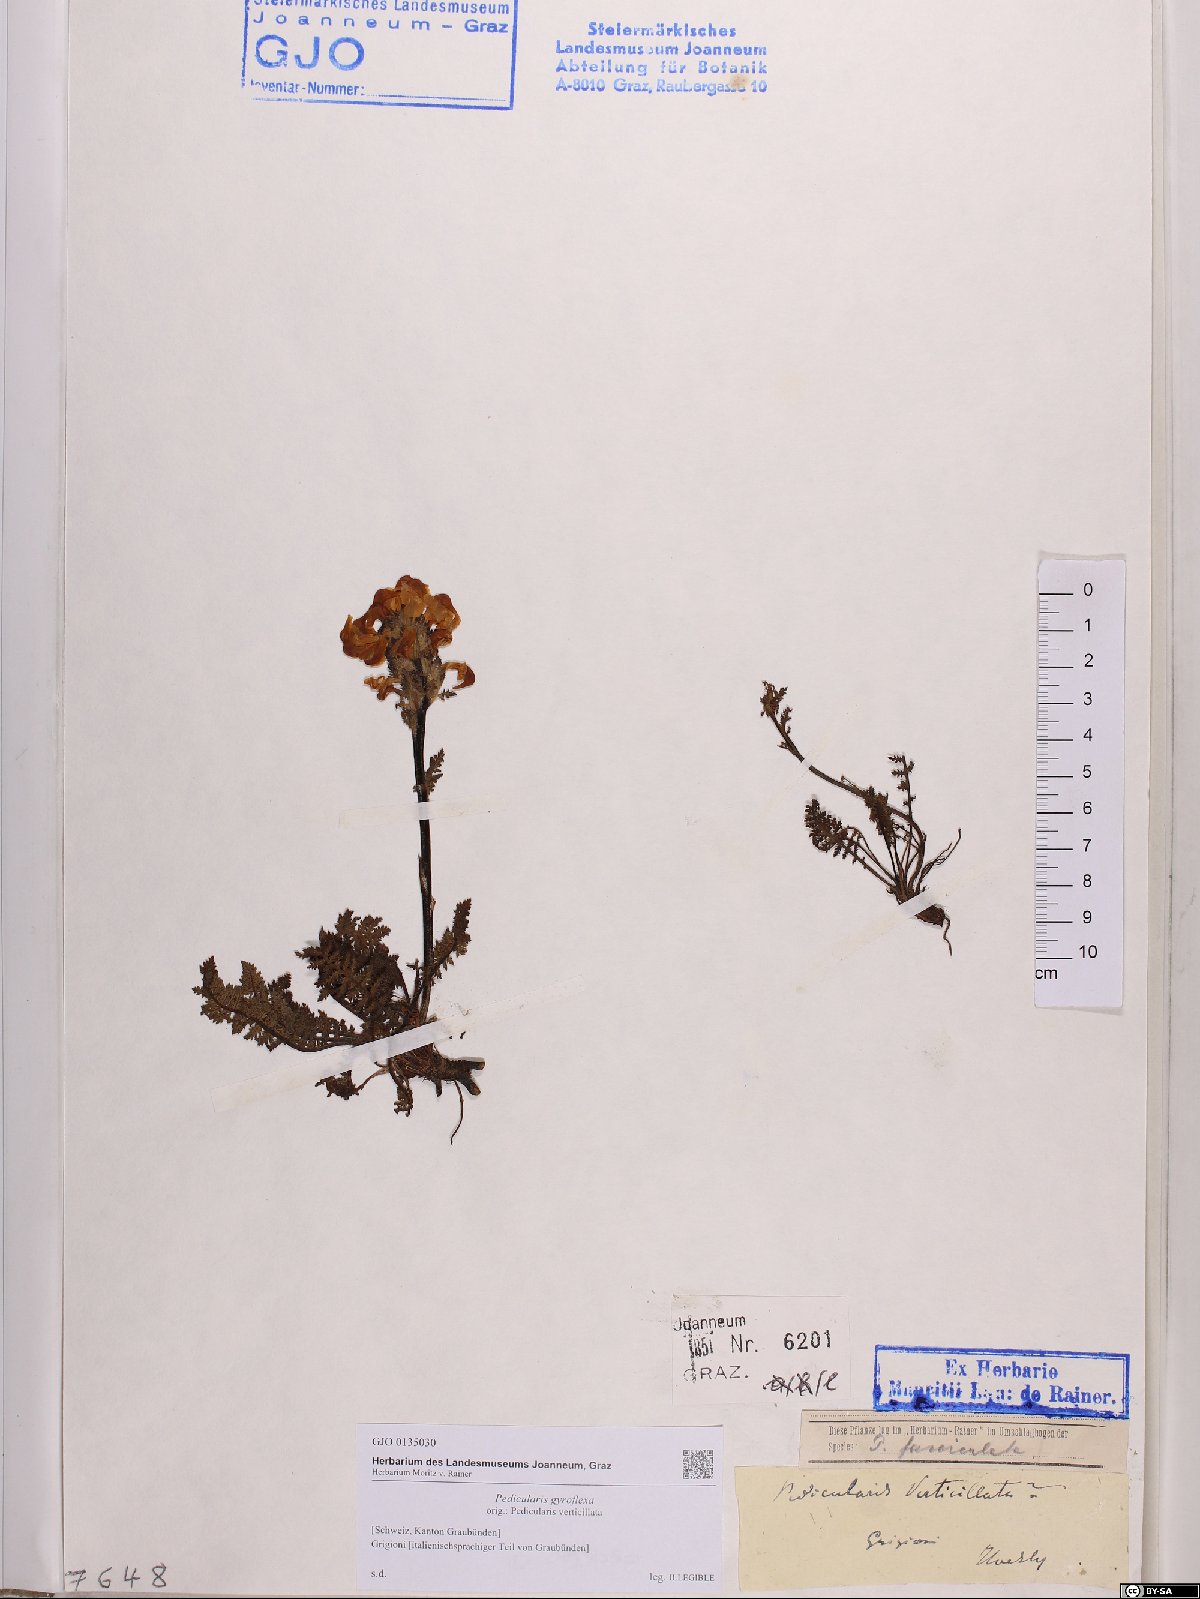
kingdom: Plantae
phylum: Tracheophyta
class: Magnoliopsida
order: Lamiales
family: Orobanchaceae
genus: Pedicularis
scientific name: Pedicularis gyroflexa
